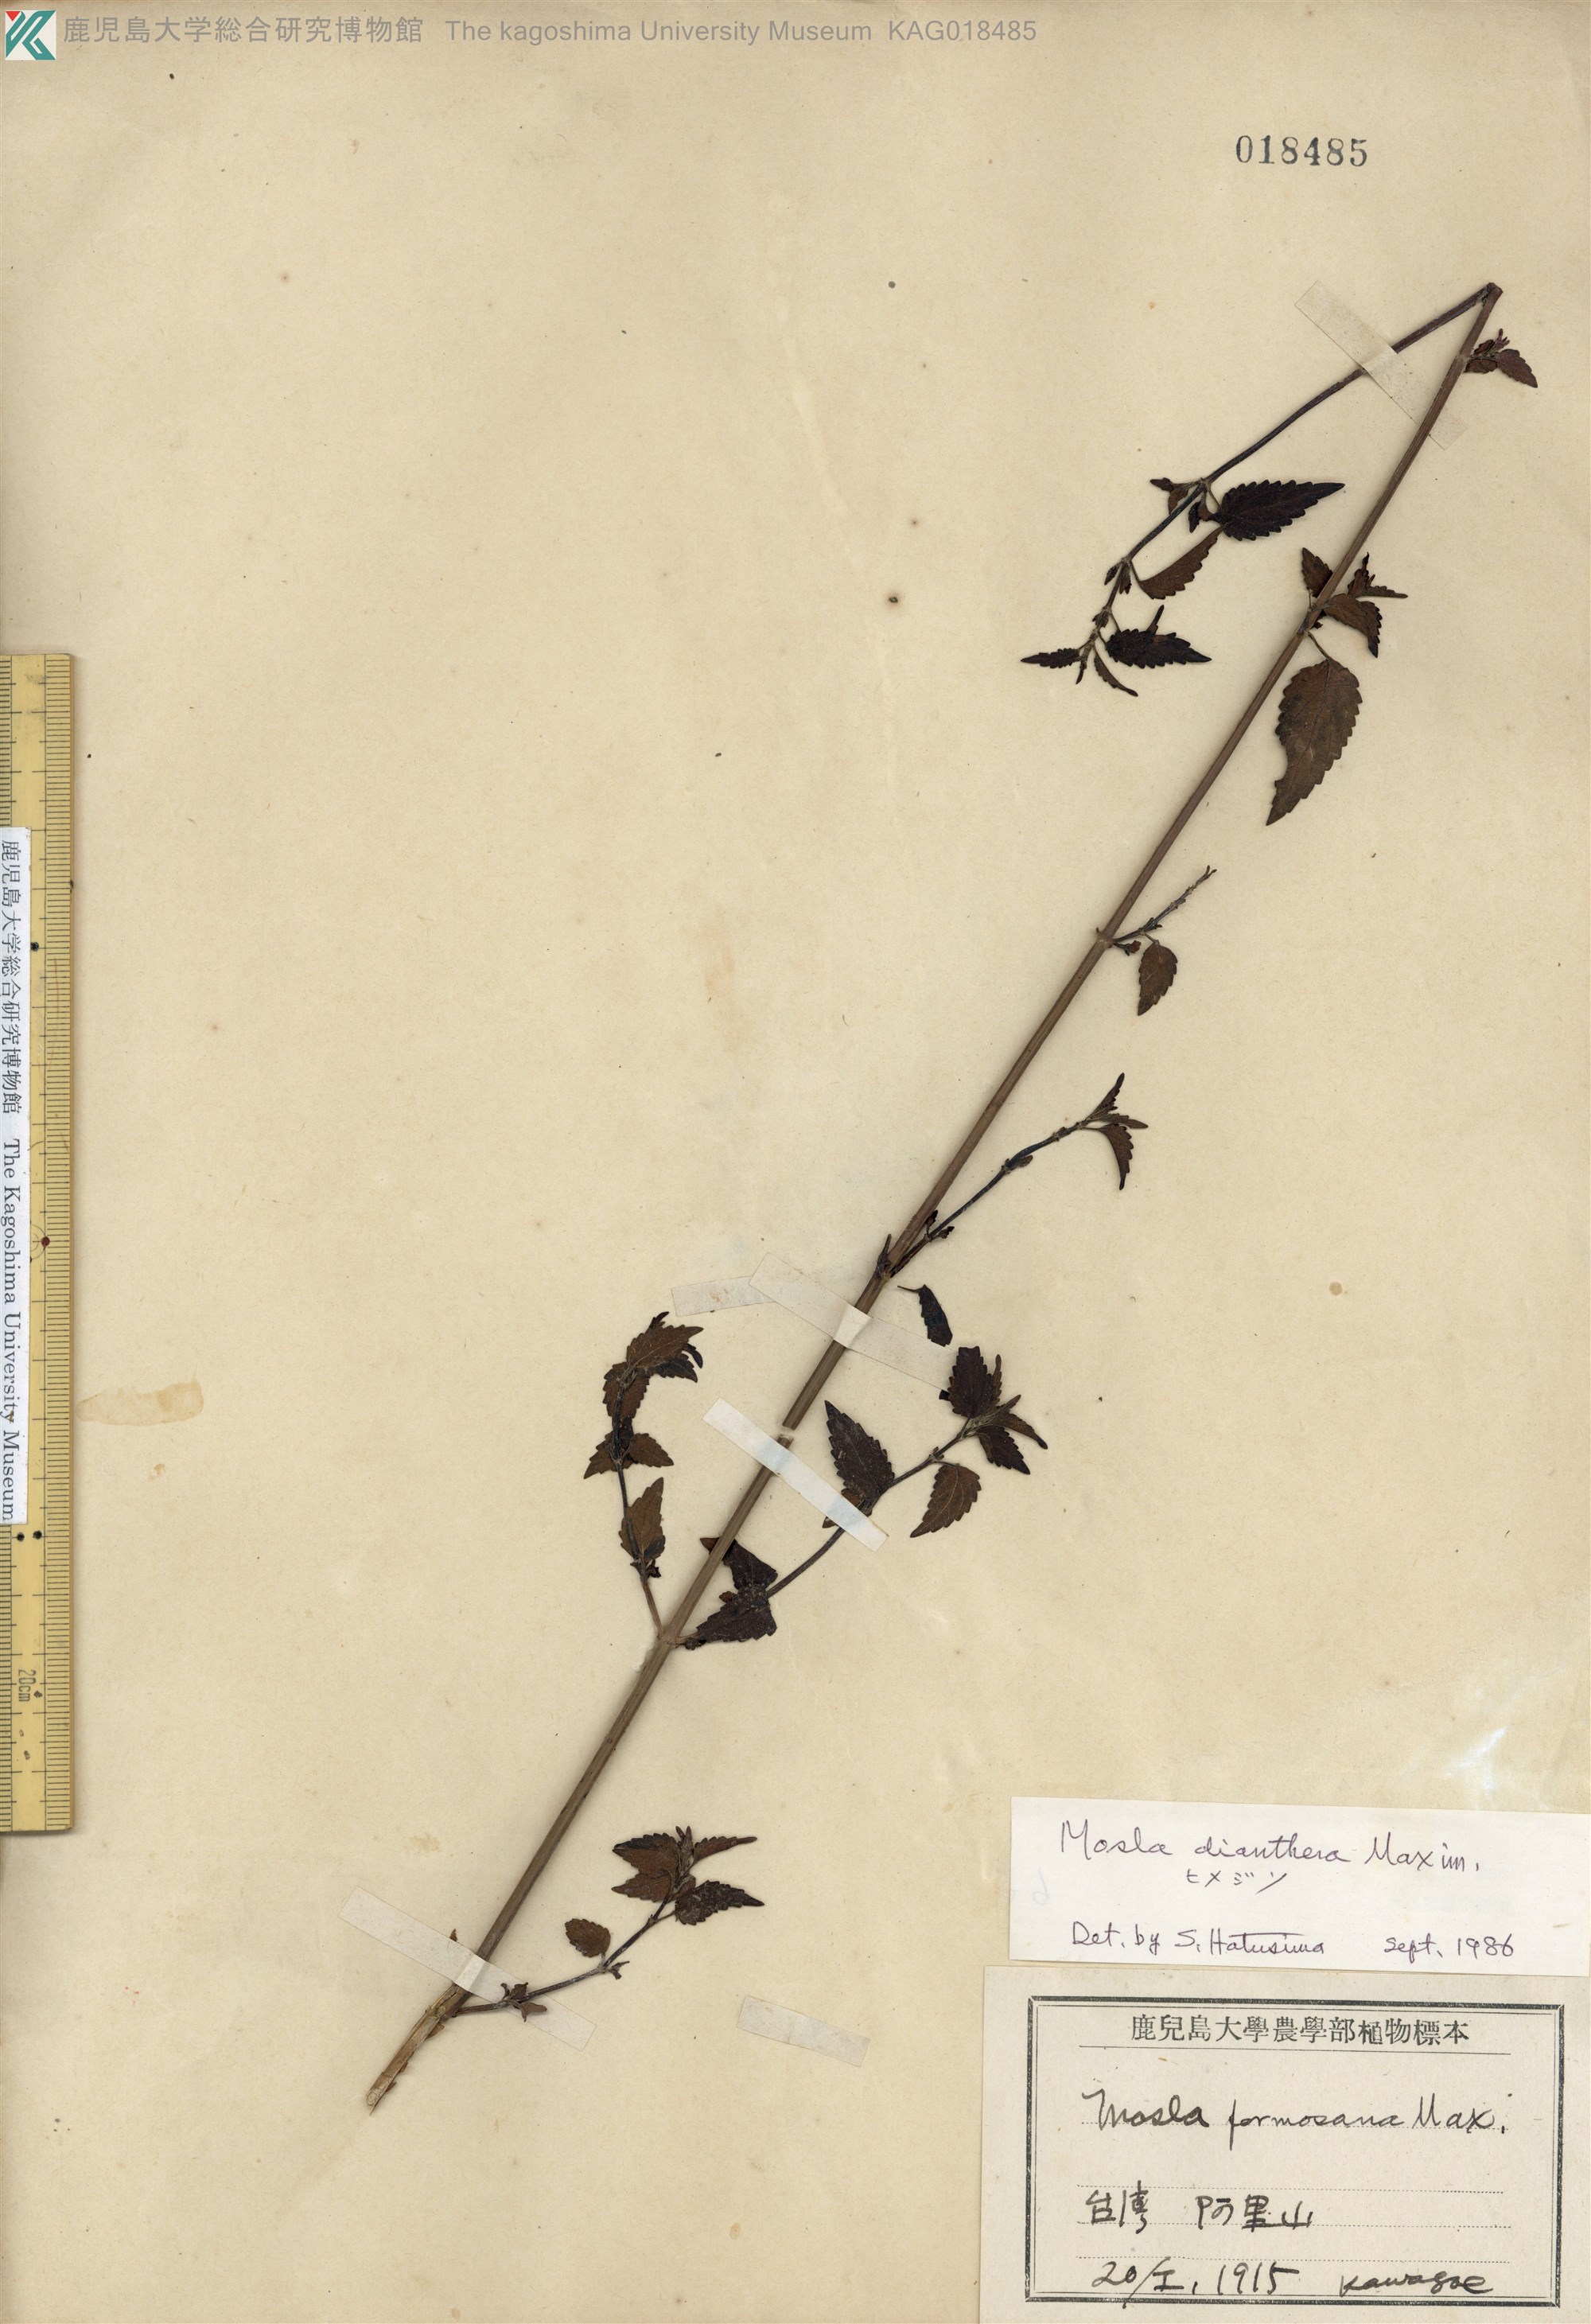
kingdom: Plantae
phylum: Tracheophyta
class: Magnoliopsida
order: Lamiales
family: Lamiaceae
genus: Mosla
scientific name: Mosla dianthera
